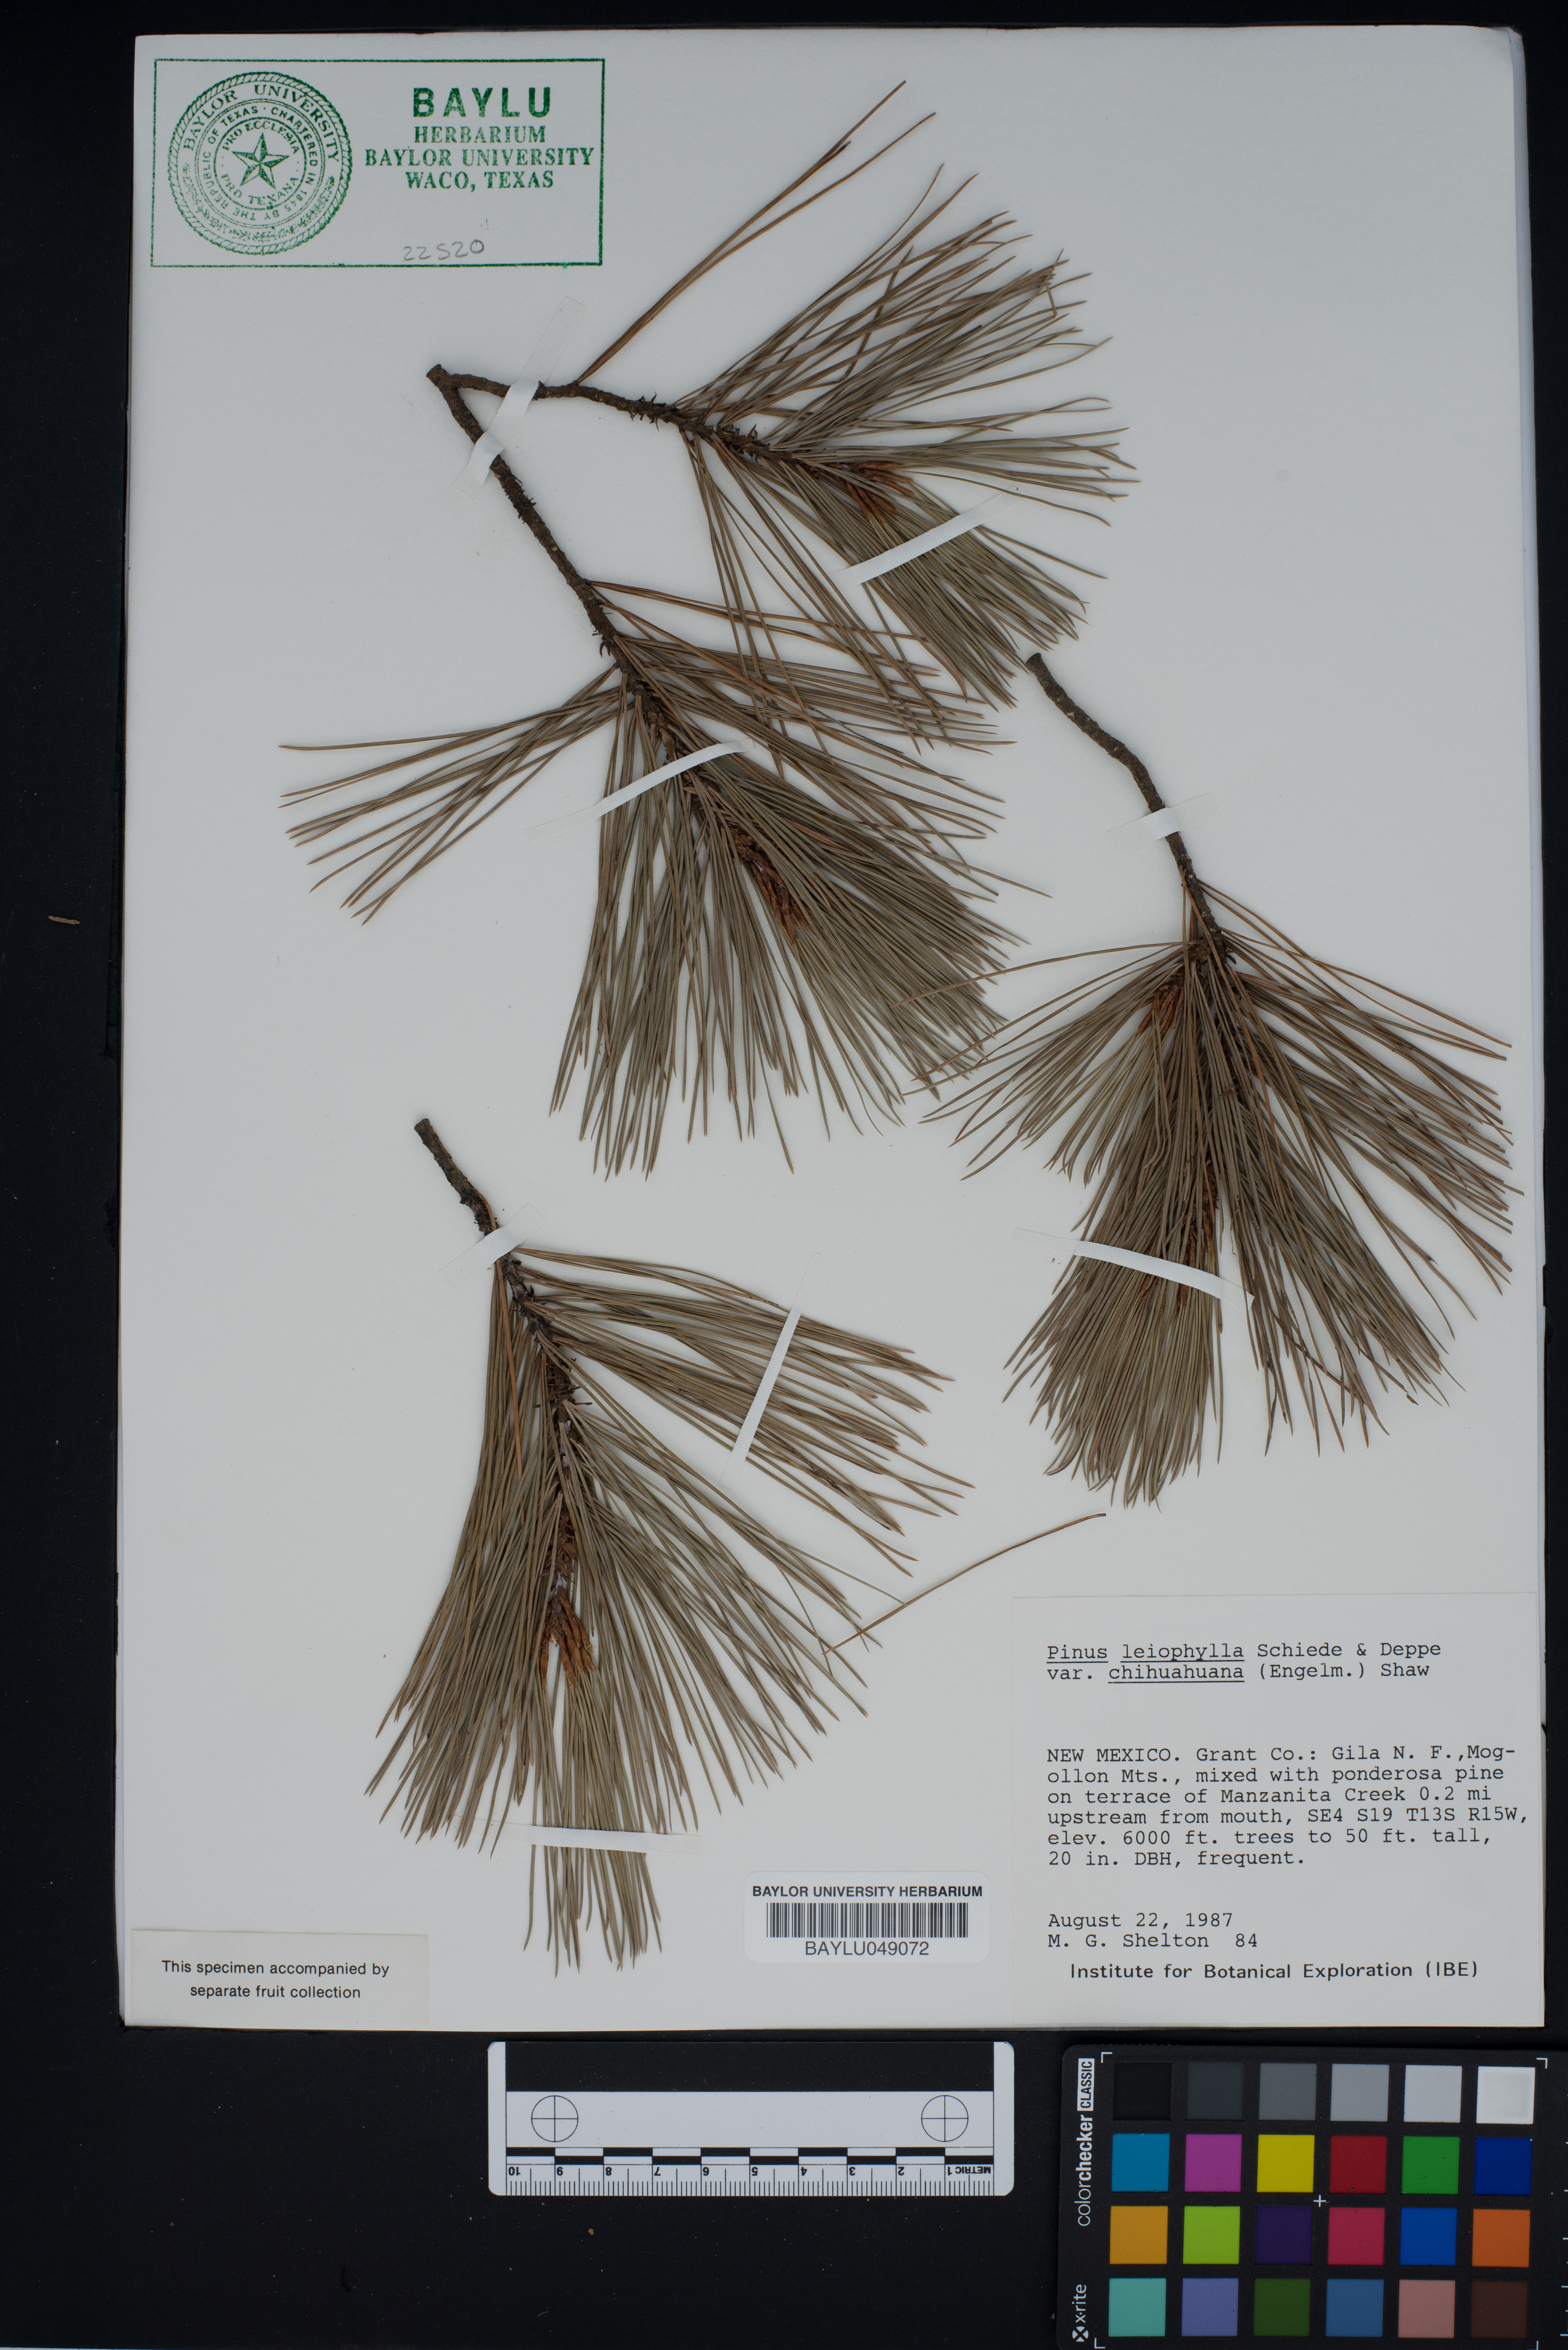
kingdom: Plantae
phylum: Tracheophyta
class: Pinopsida
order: Pinales
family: Pinaceae
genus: Pinus
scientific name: Pinus leiophylla
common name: Chihuahua pine
